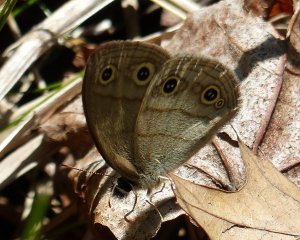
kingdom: Animalia
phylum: Arthropoda
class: Insecta
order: Lepidoptera
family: Nymphalidae
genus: Euptychia
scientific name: Euptychia cymela
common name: Little Wood Satyr
